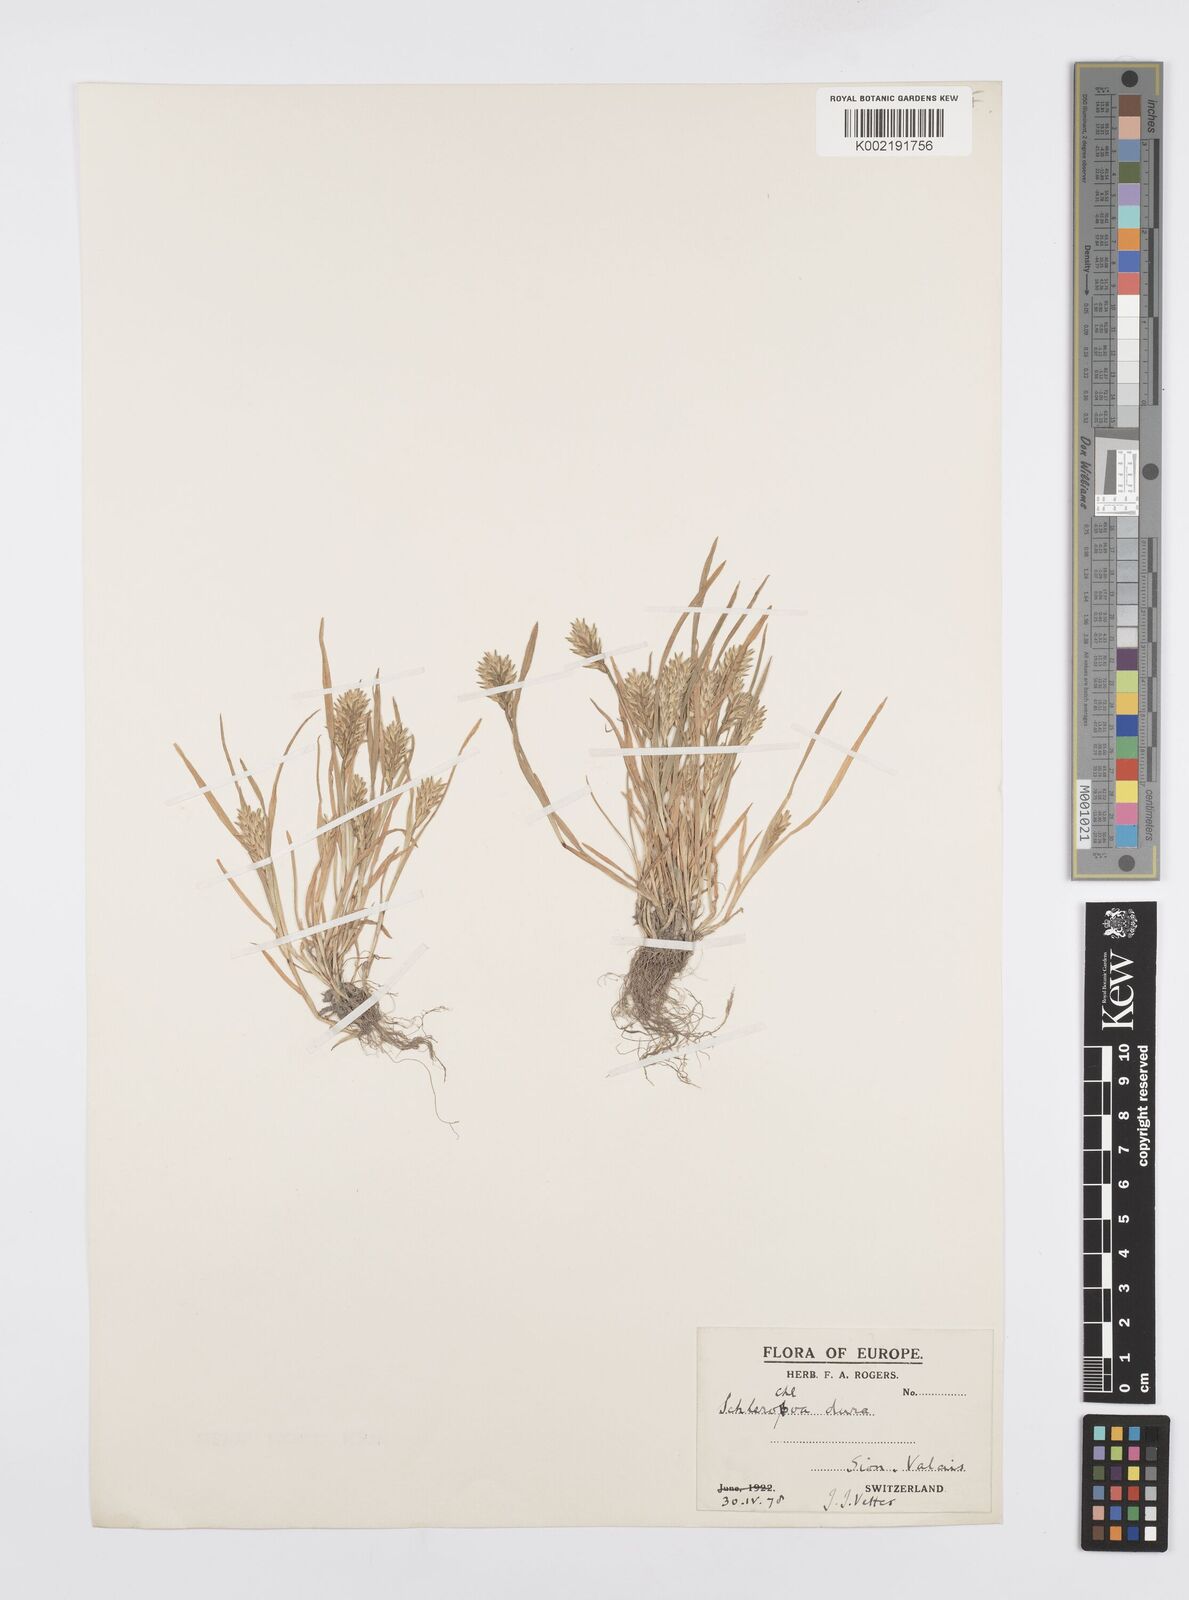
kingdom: Plantae
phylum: Tracheophyta
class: Liliopsida
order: Poales
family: Poaceae
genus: Sclerochloa
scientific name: Sclerochloa dura
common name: Common hardgrass
